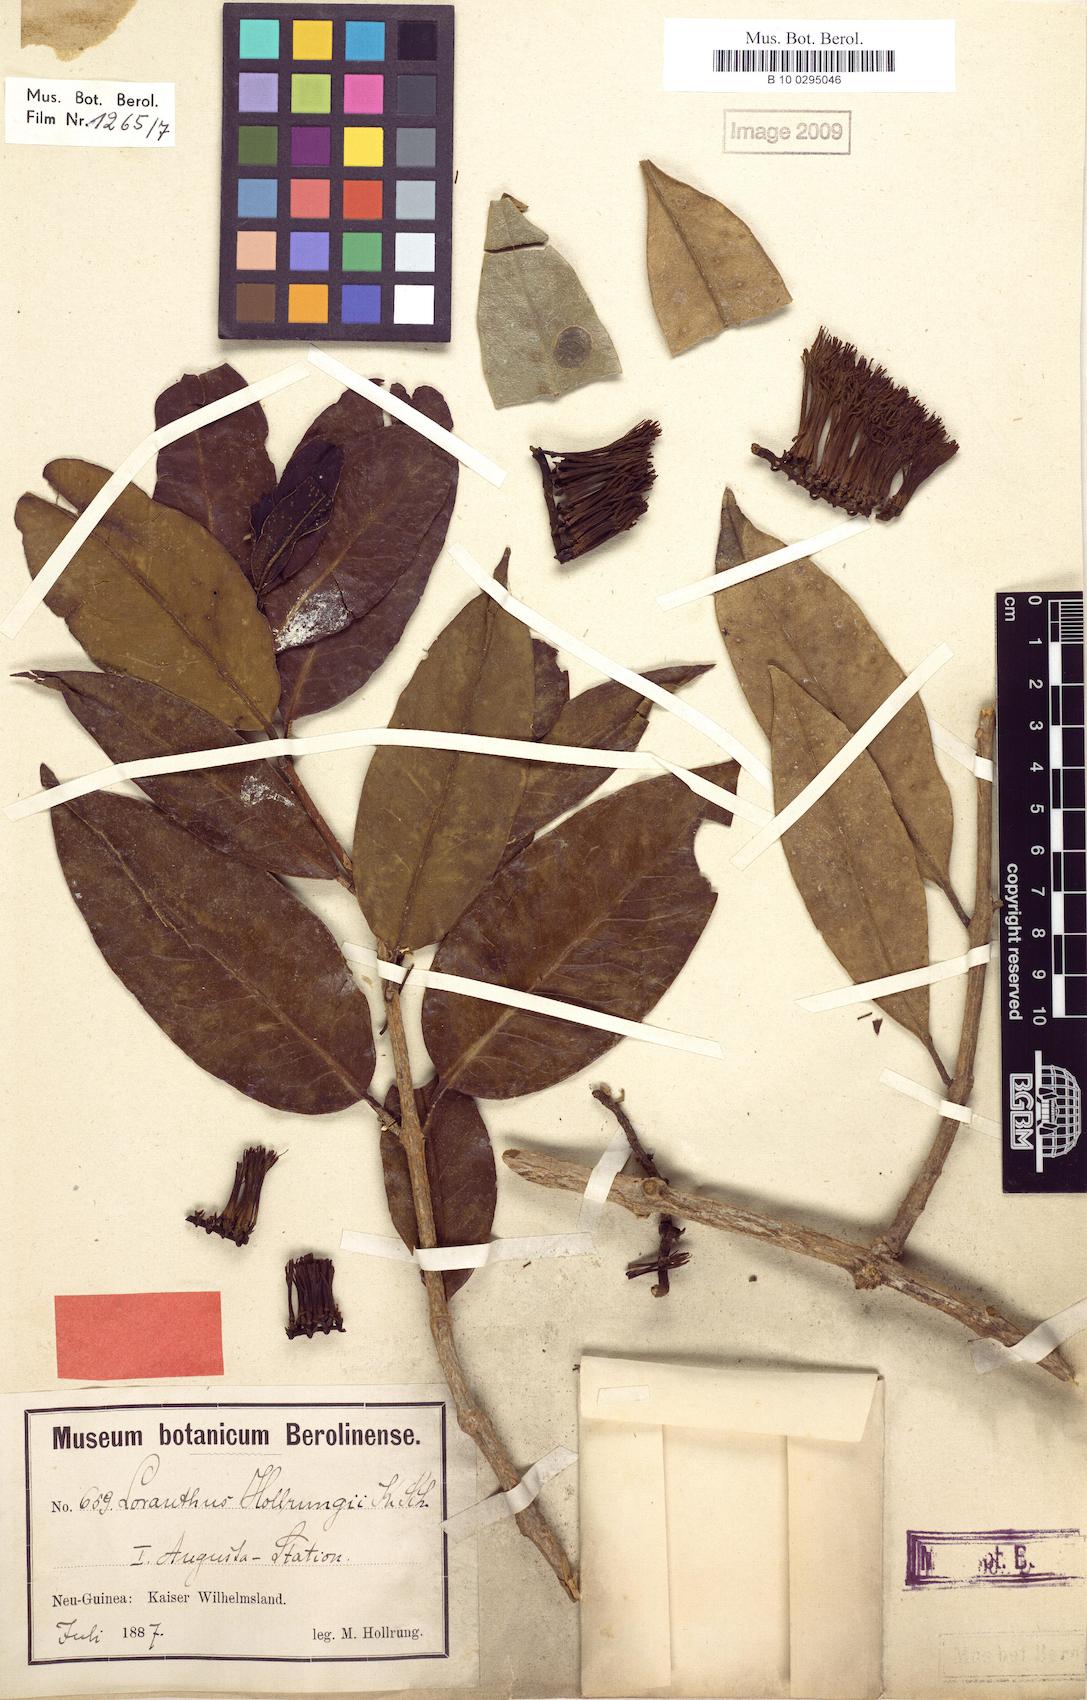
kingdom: Plantae
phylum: Tracheophyta
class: Magnoliopsida
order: Santalales
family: Loranthaceae
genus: Decaisnina
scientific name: Decaisnina hollrungii
